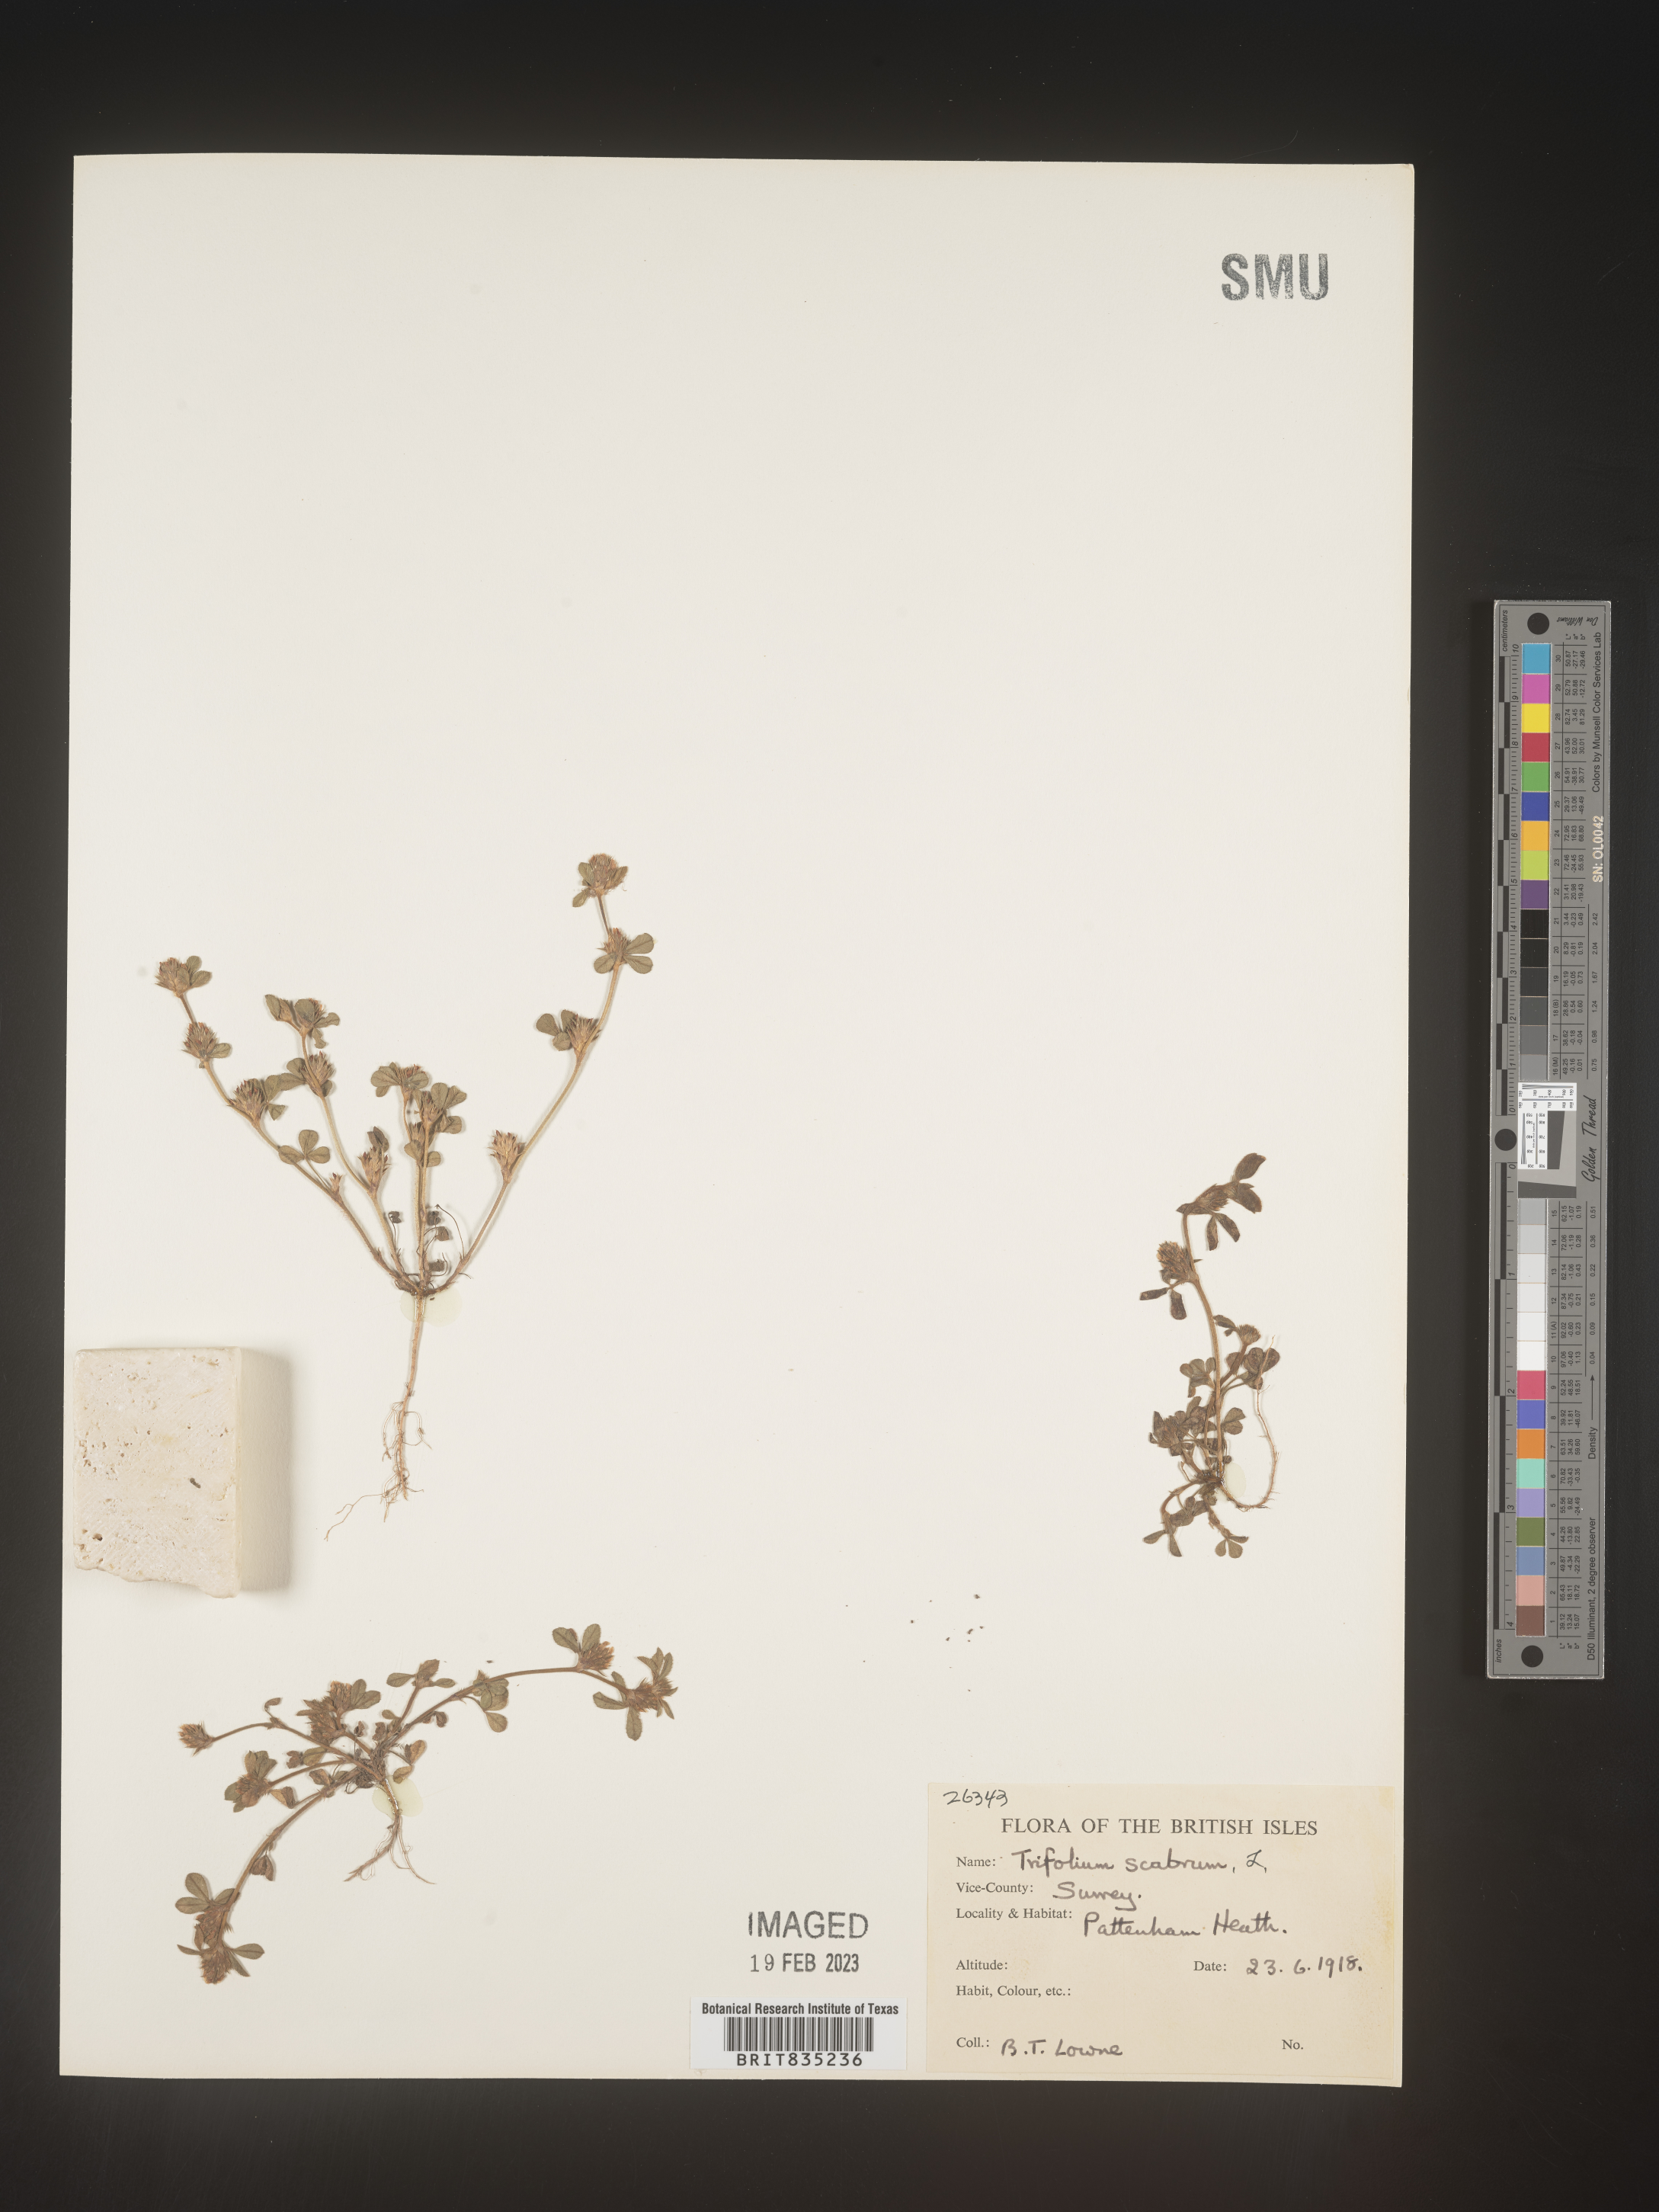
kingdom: Plantae
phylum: Tracheophyta
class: Magnoliopsida
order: Fabales
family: Fabaceae
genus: Trifolium
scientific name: Trifolium
